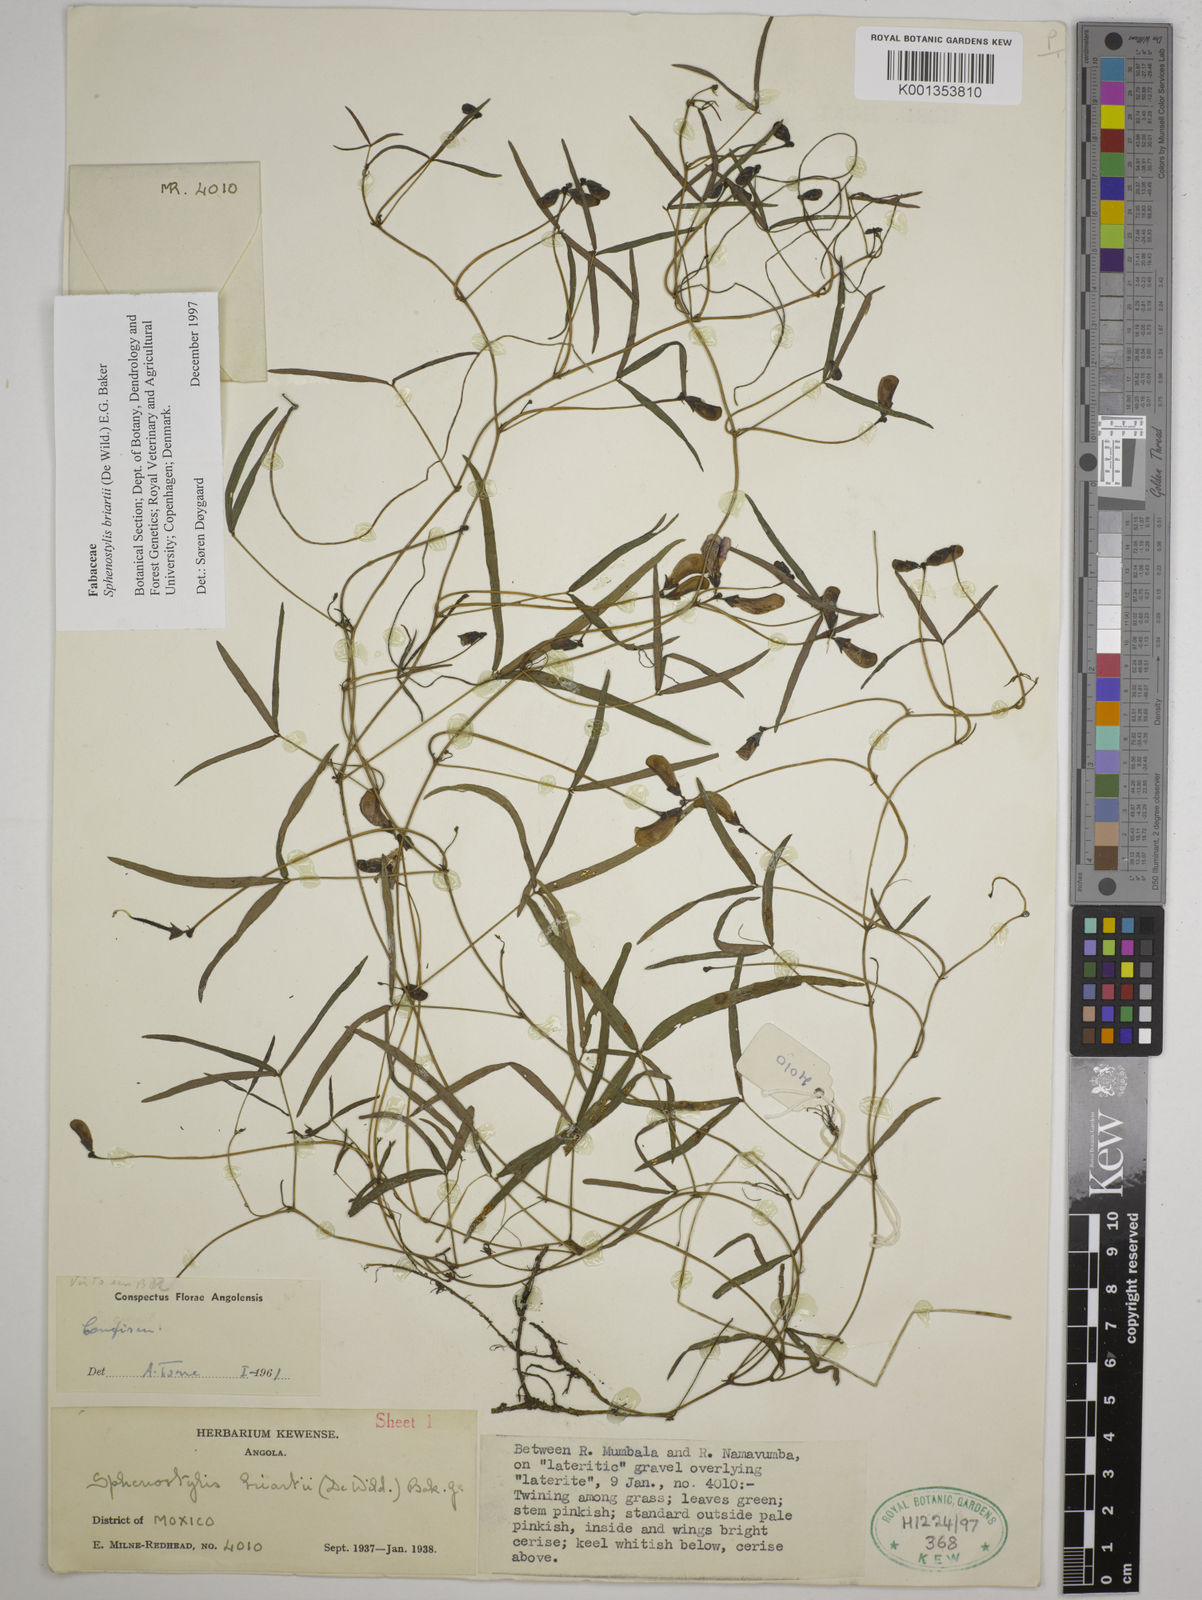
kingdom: Plantae
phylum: Tracheophyta
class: Magnoliopsida
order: Fabales
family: Fabaceae
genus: Sphenostylis
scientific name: Sphenostylis briartii
